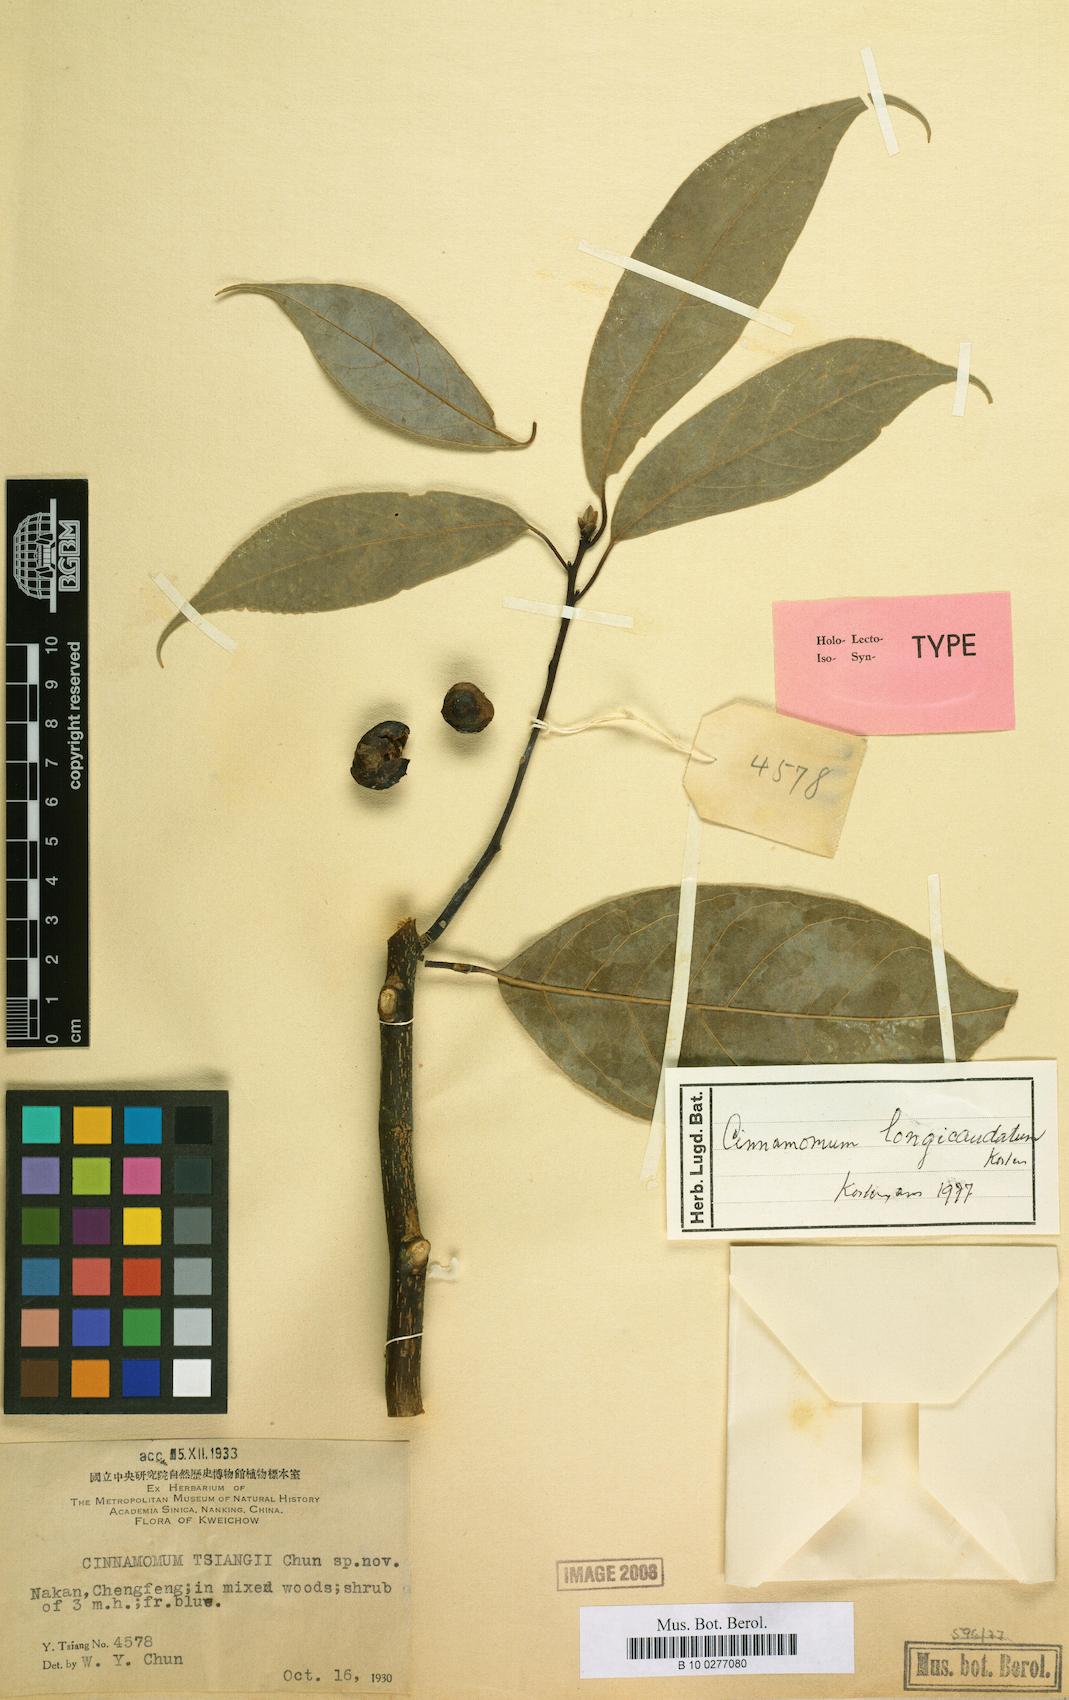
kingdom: Plantae
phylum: Tracheophyta
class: Magnoliopsida
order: Laurales
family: Lauraceae
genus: Cinnamomum
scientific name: Cinnamomum
